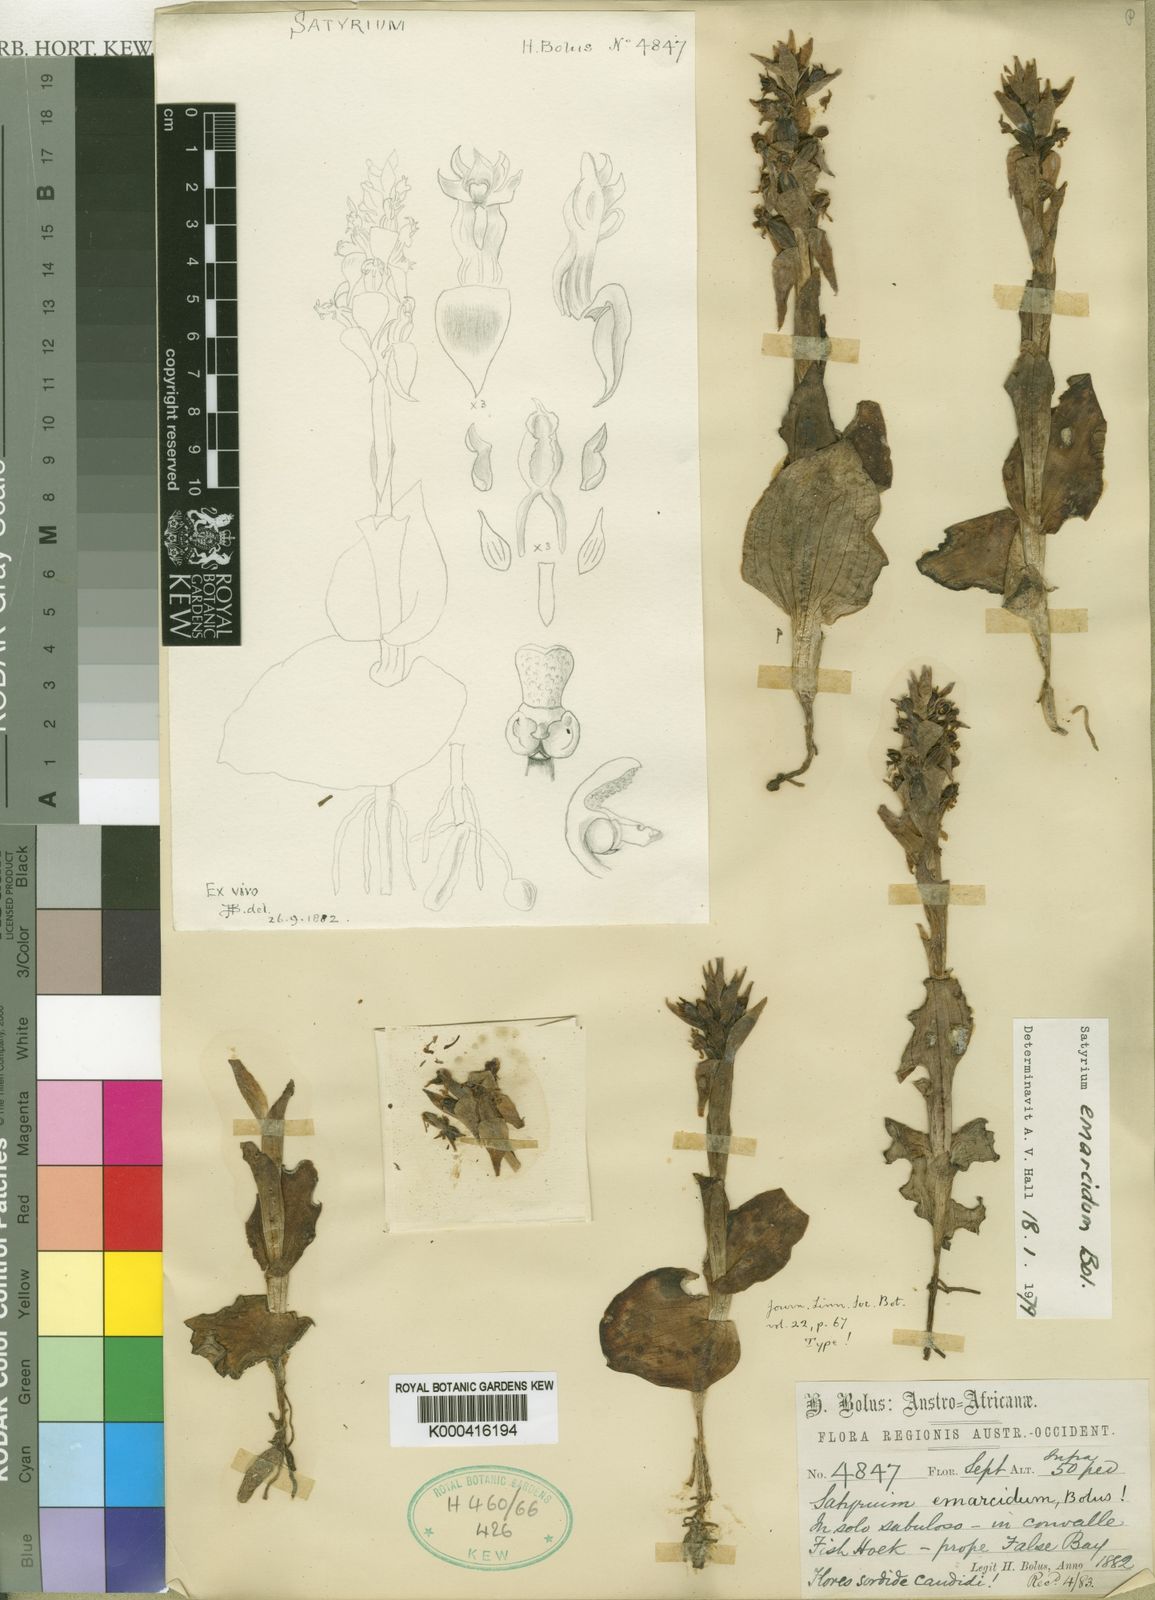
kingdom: Plantae
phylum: Tracheophyta
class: Liliopsida
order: Asparagales
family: Orchidaceae
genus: Satyrium
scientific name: Satyrium emarcidum
